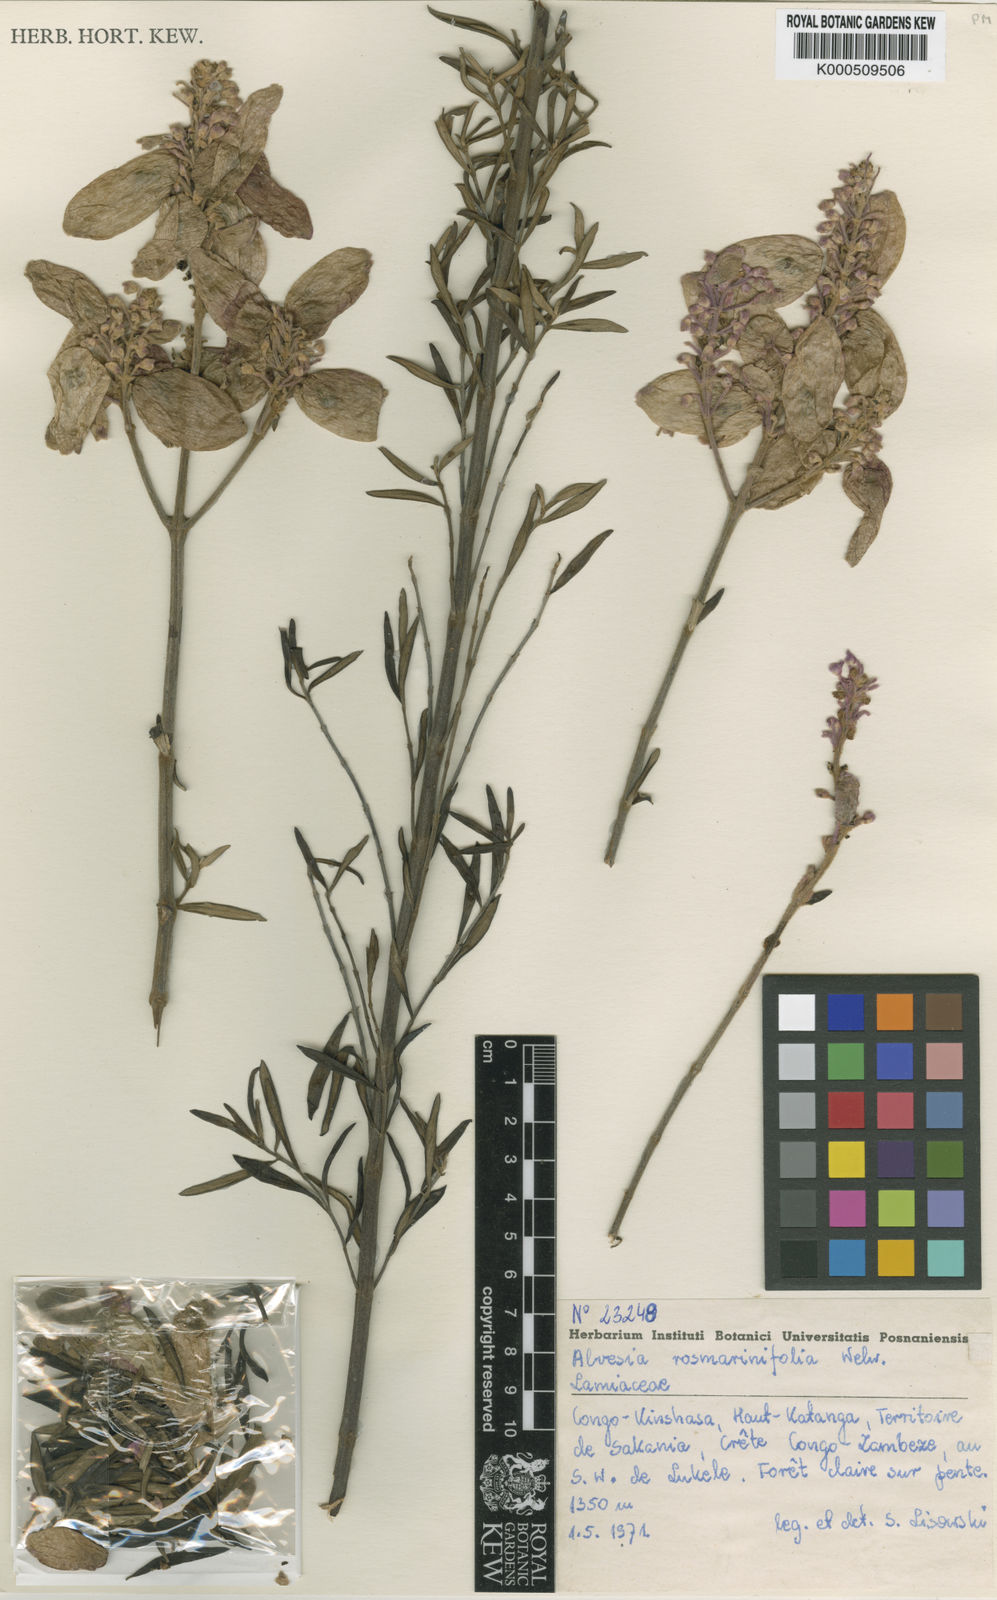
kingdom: Plantae
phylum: Tracheophyta
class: Magnoliopsida
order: Lamiales
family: Lamiaceae
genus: Alvesia
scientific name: Alvesia rosmarinifolia
